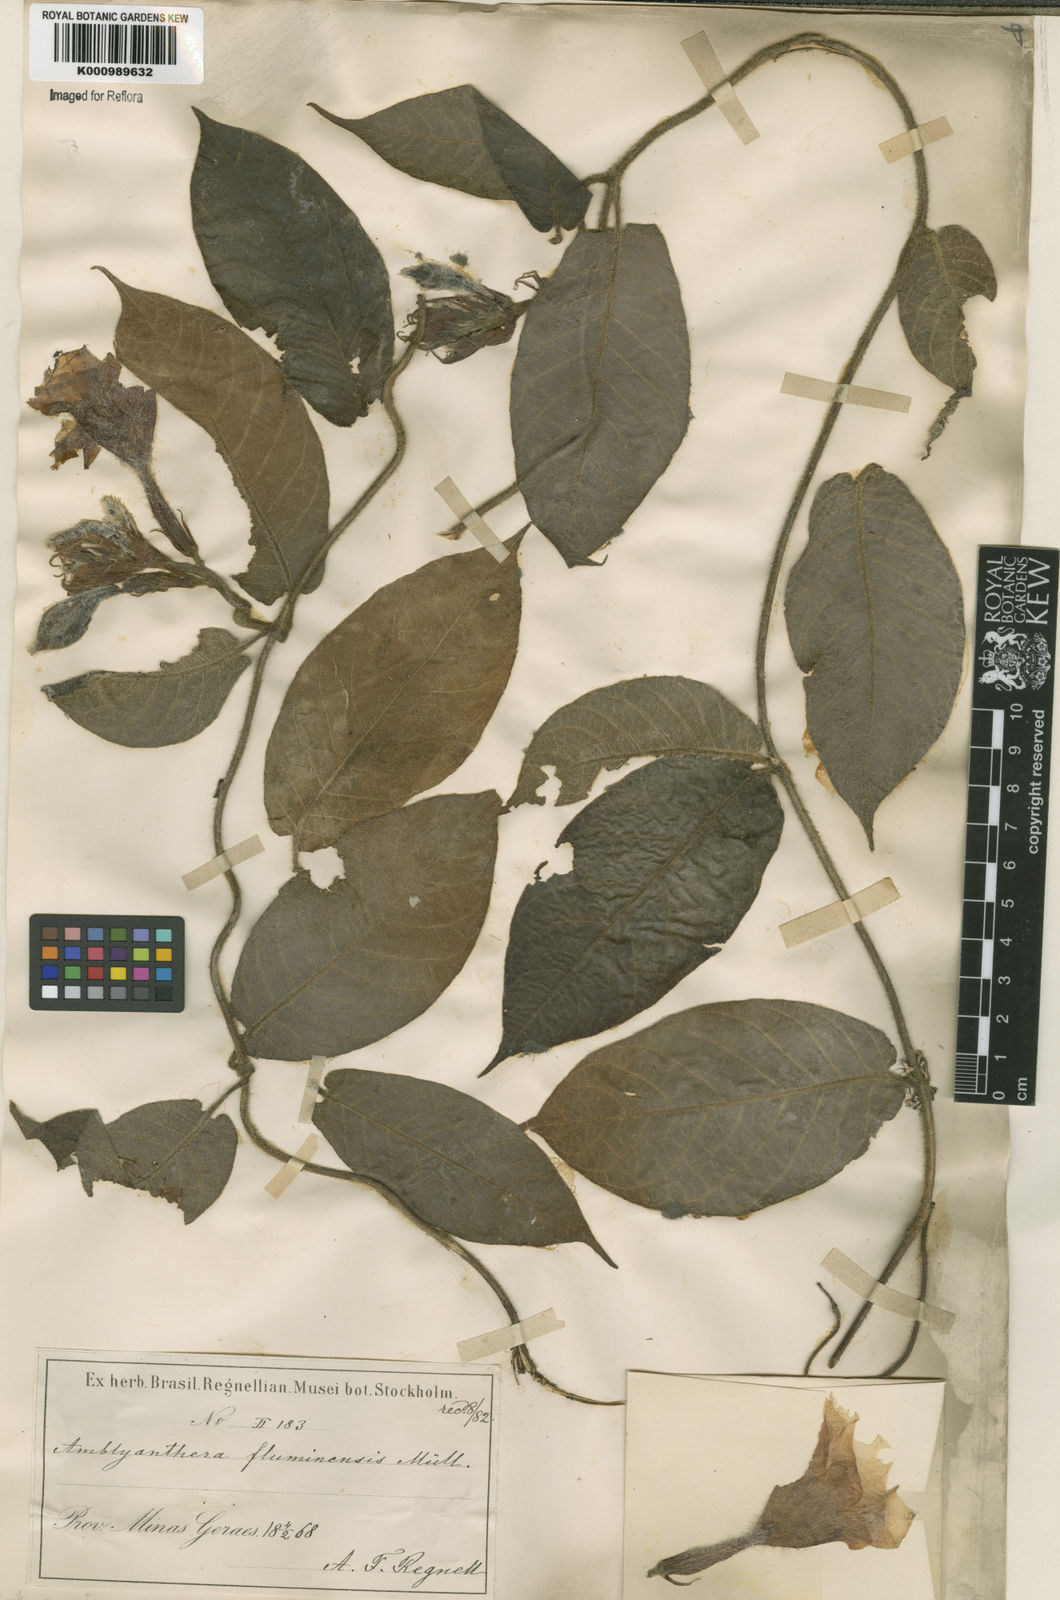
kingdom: Plantae
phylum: Tracheophyta
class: Magnoliopsida
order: Gentianales
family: Apocynaceae
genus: Mandevilla
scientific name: Mandevilla hirsuta
